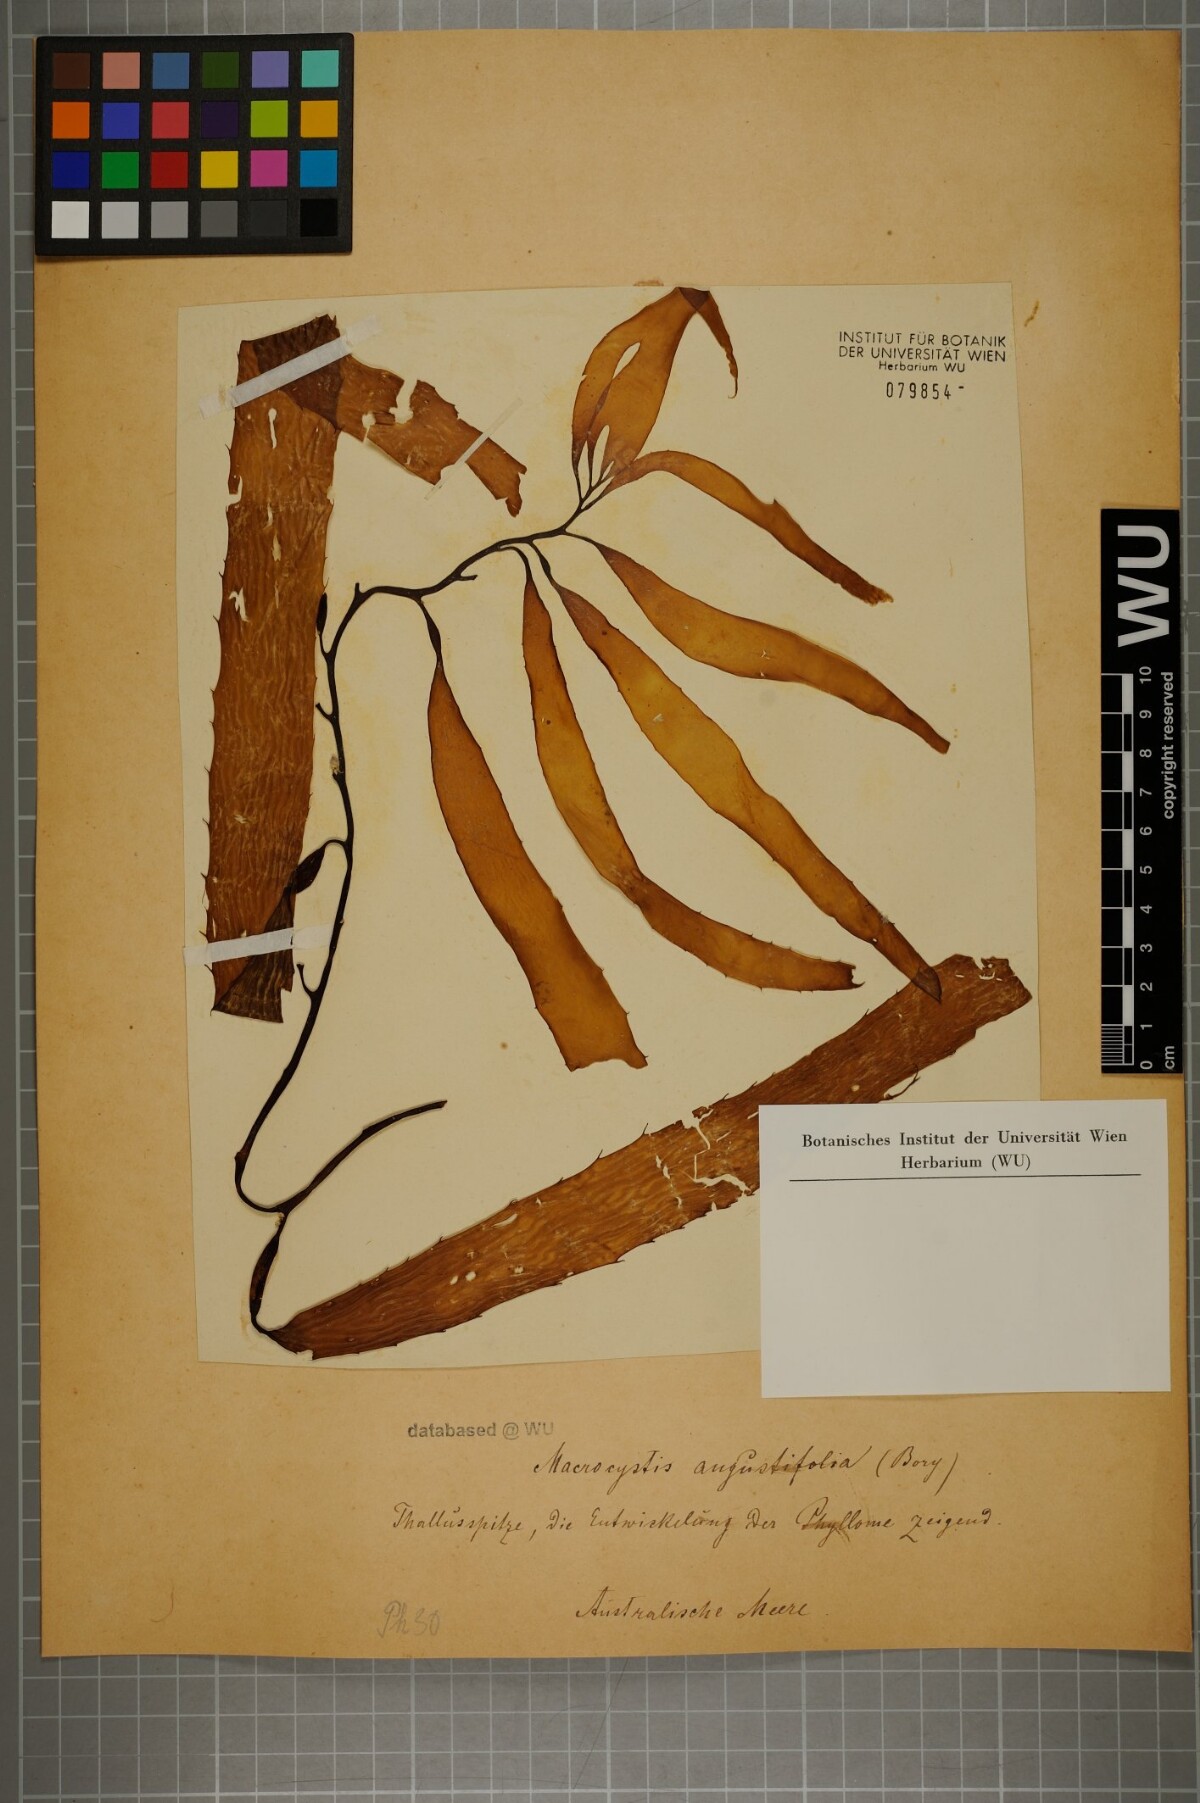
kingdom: Chromista
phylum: Ochrophyta
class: Phaeophyceae
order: Laminariales
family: Laminariaceae
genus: Macrocystis
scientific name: Macrocystis angustifolia
